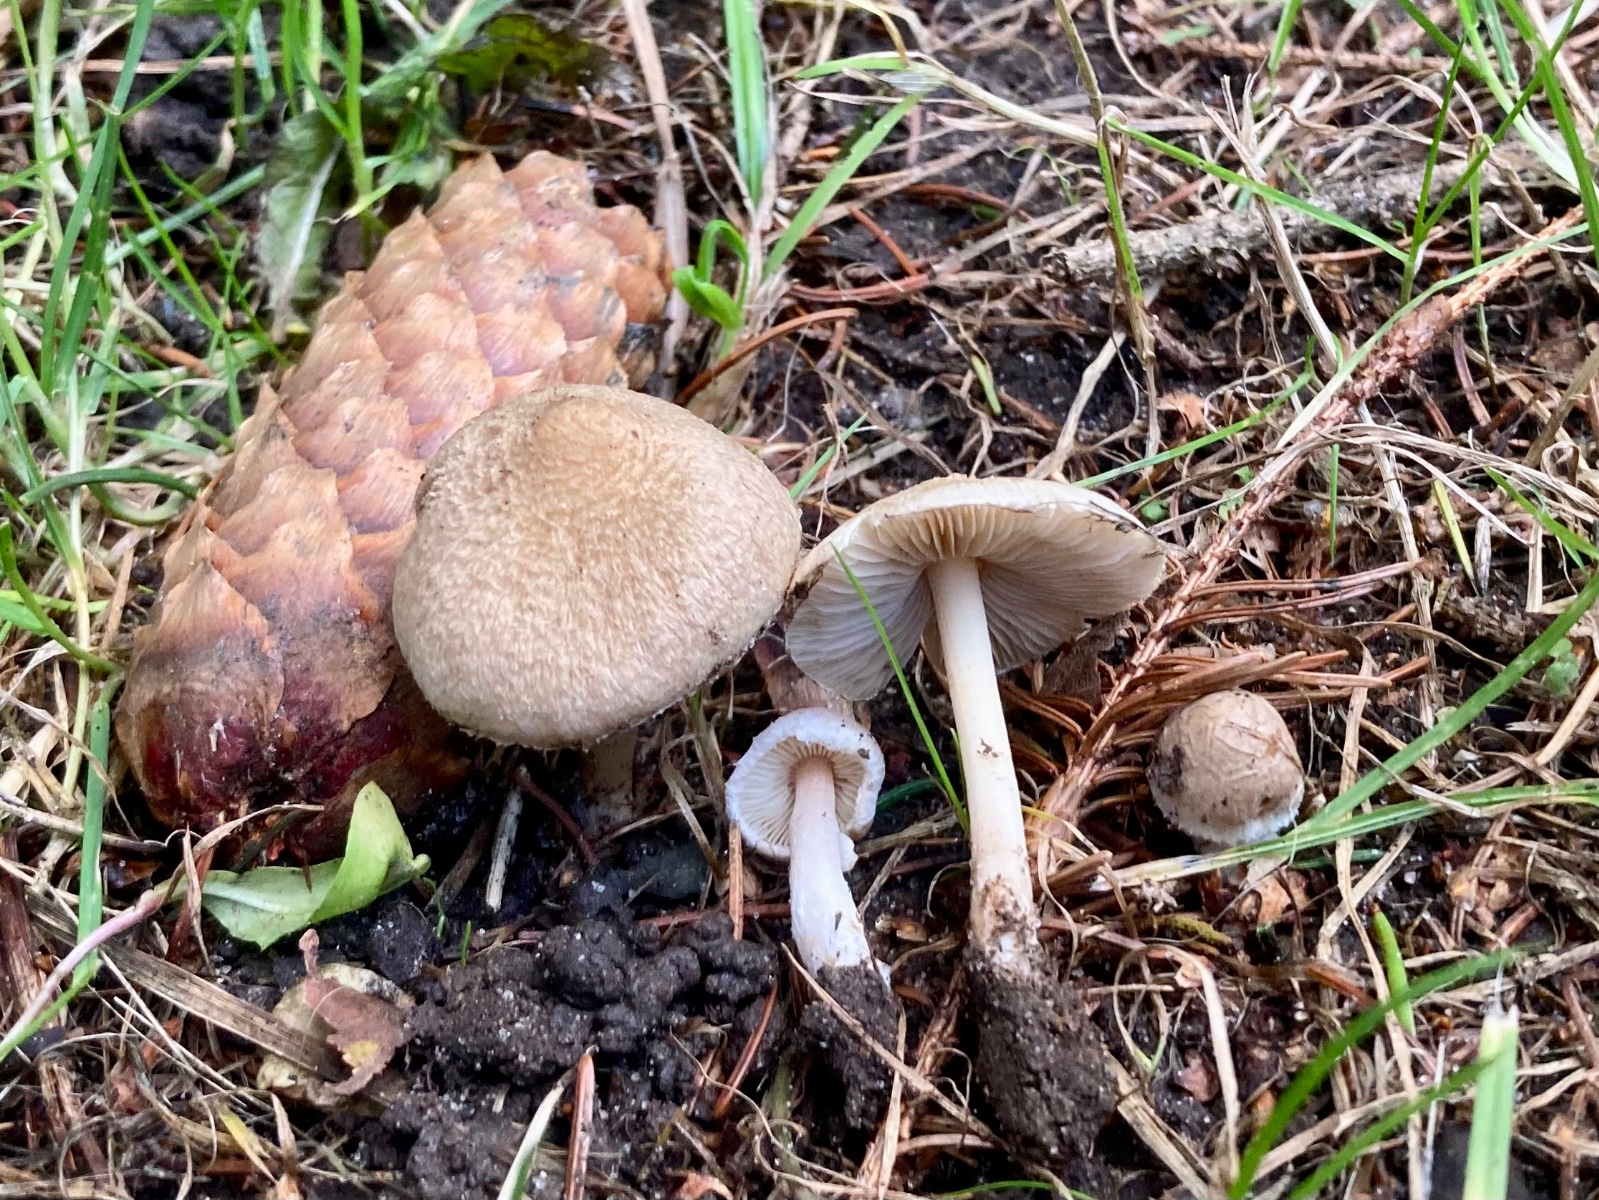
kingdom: Fungi
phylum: Basidiomycota
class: Agaricomycetes
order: Agaricales
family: Inocybaceae
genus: Inocybe
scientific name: Inocybe
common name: trævlhat
